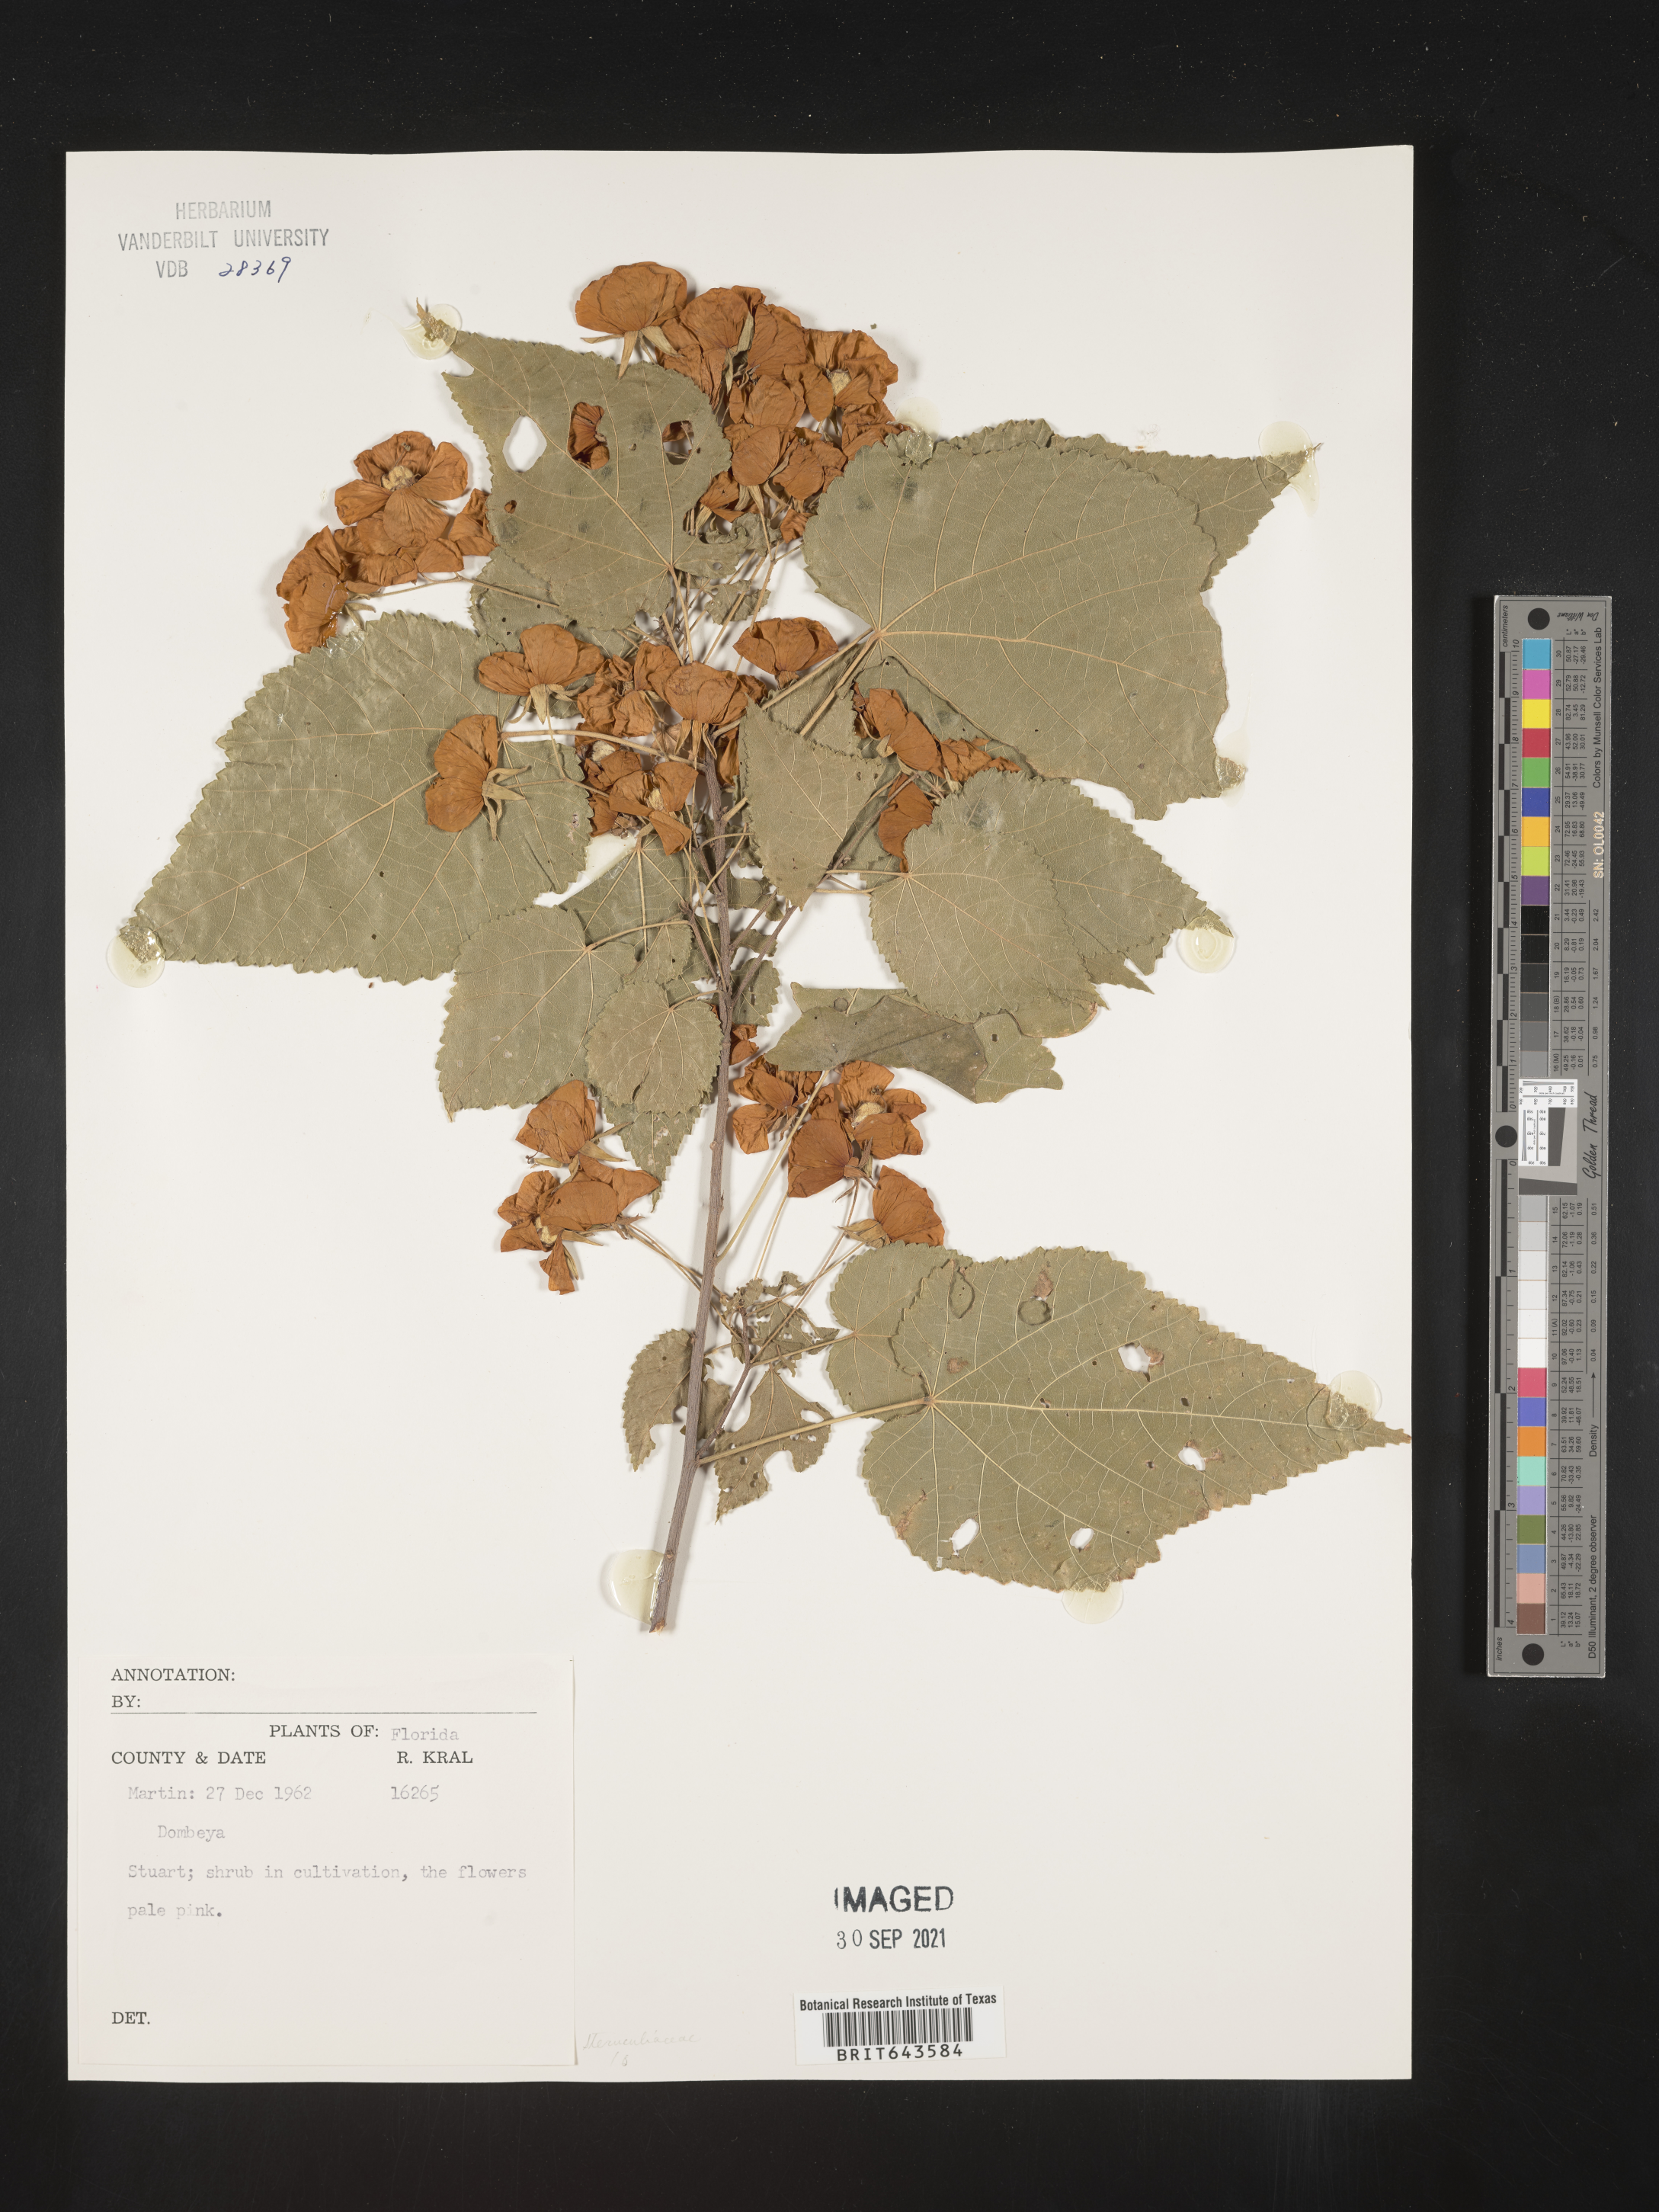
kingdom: Plantae
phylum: Tracheophyta
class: Magnoliopsida
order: Malvales
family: Malvaceae
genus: Dombeya
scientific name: Dombeya
